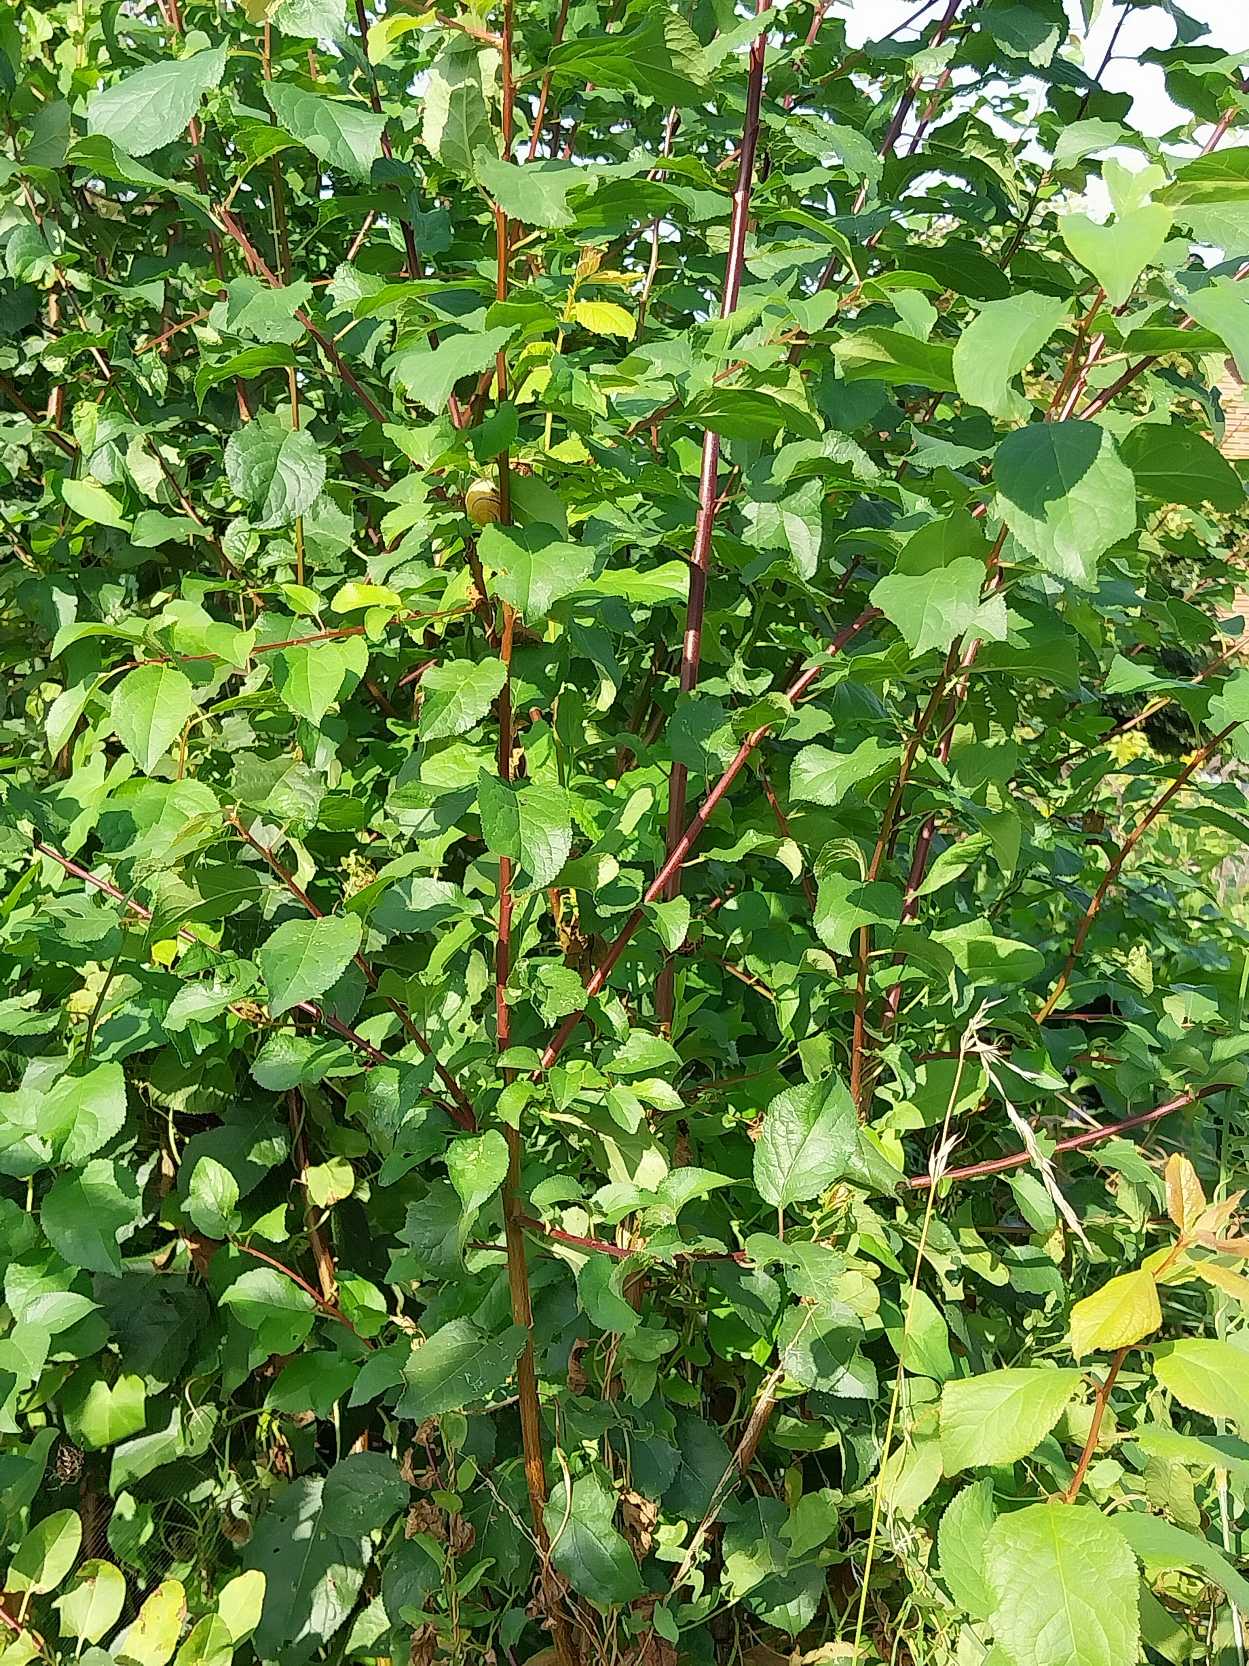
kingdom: Plantae
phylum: Tracheophyta
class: Magnoliopsida
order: Rosales
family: Rosaceae
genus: Prunus
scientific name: Prunus cerasifera
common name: Mirabel
